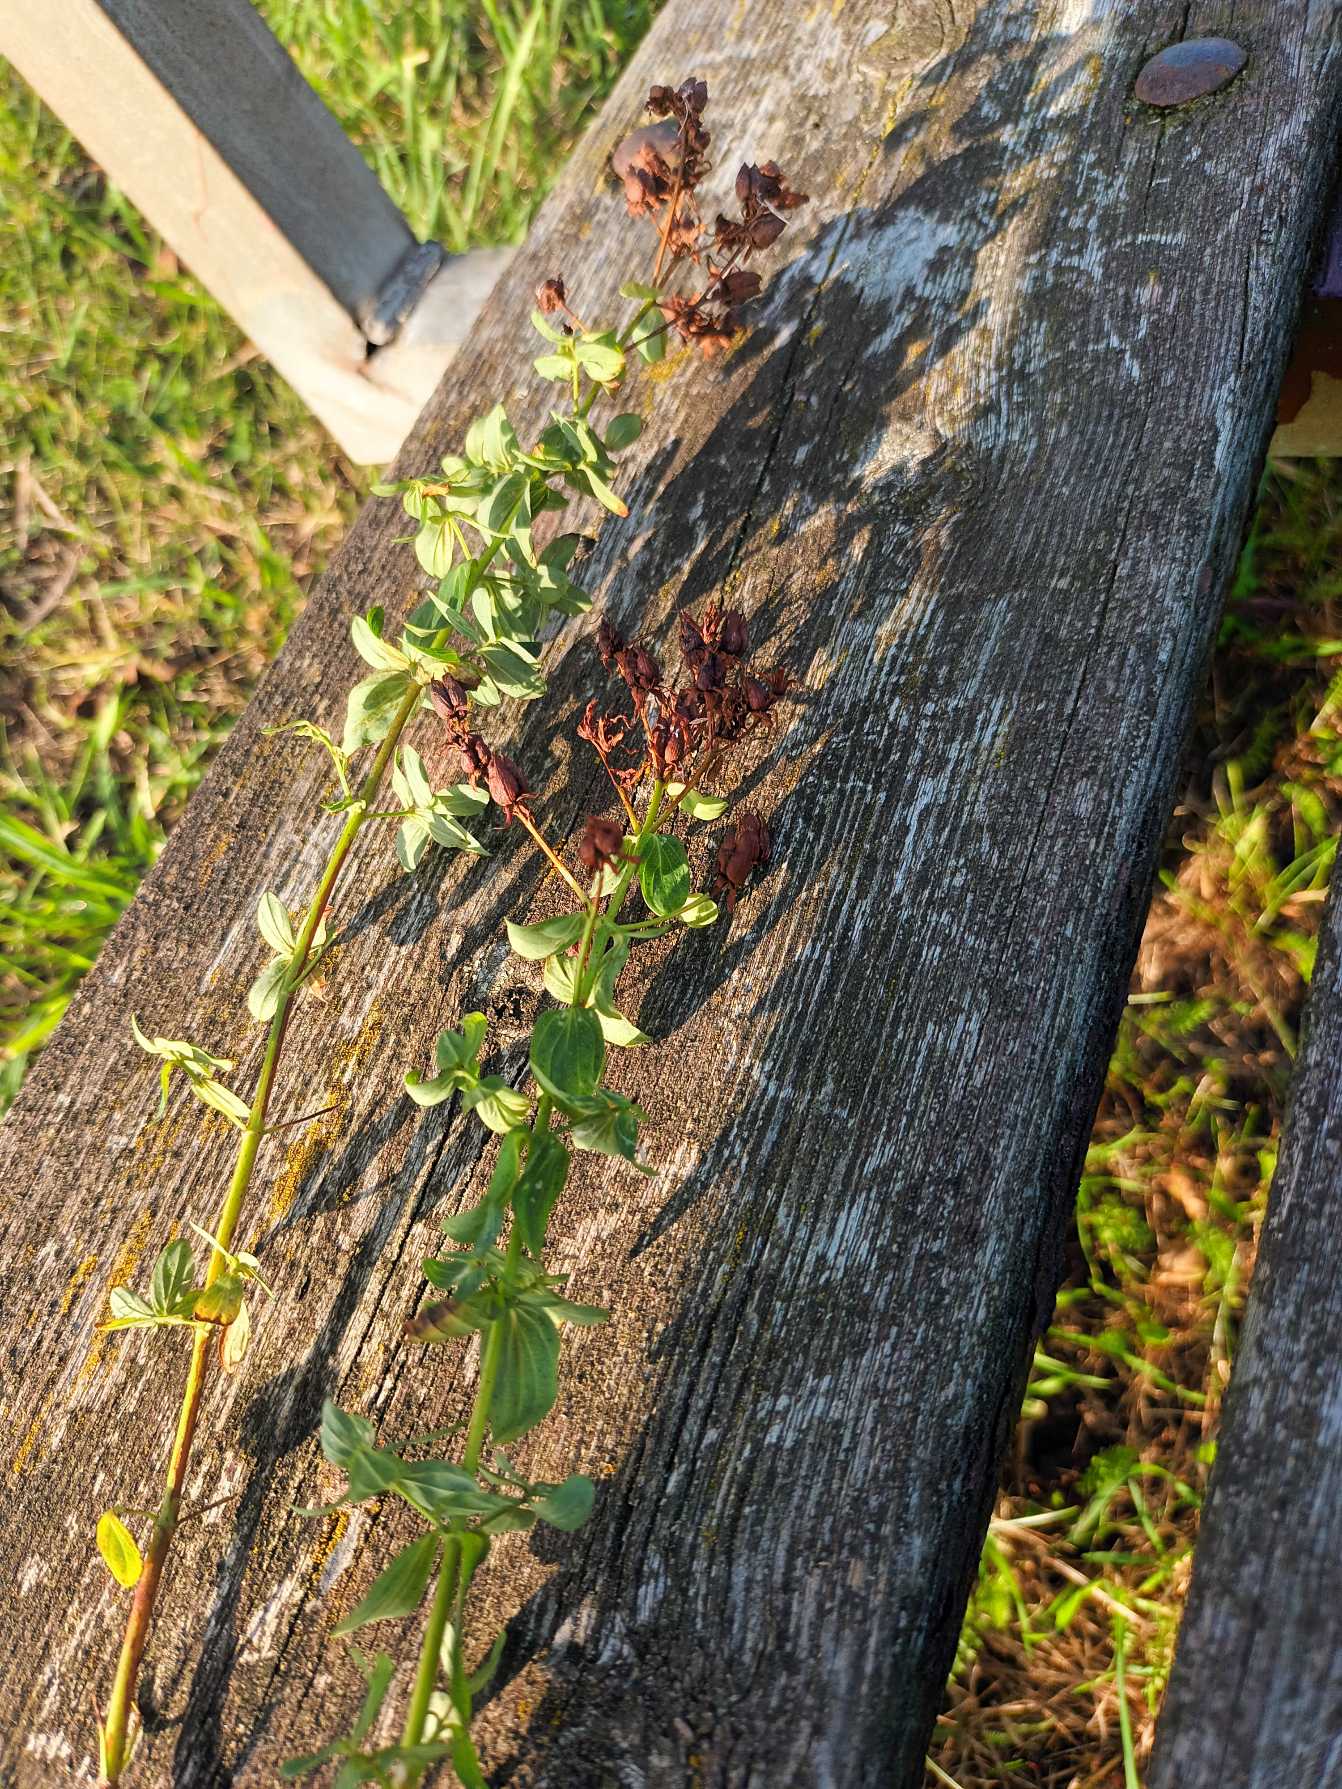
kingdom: Plantae
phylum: Tracheophyta
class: Magnoliopsida
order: Malpighiales
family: Hypericaceae
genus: Hypericum
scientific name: Hypericum perforatum
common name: Prikbladet perikon
